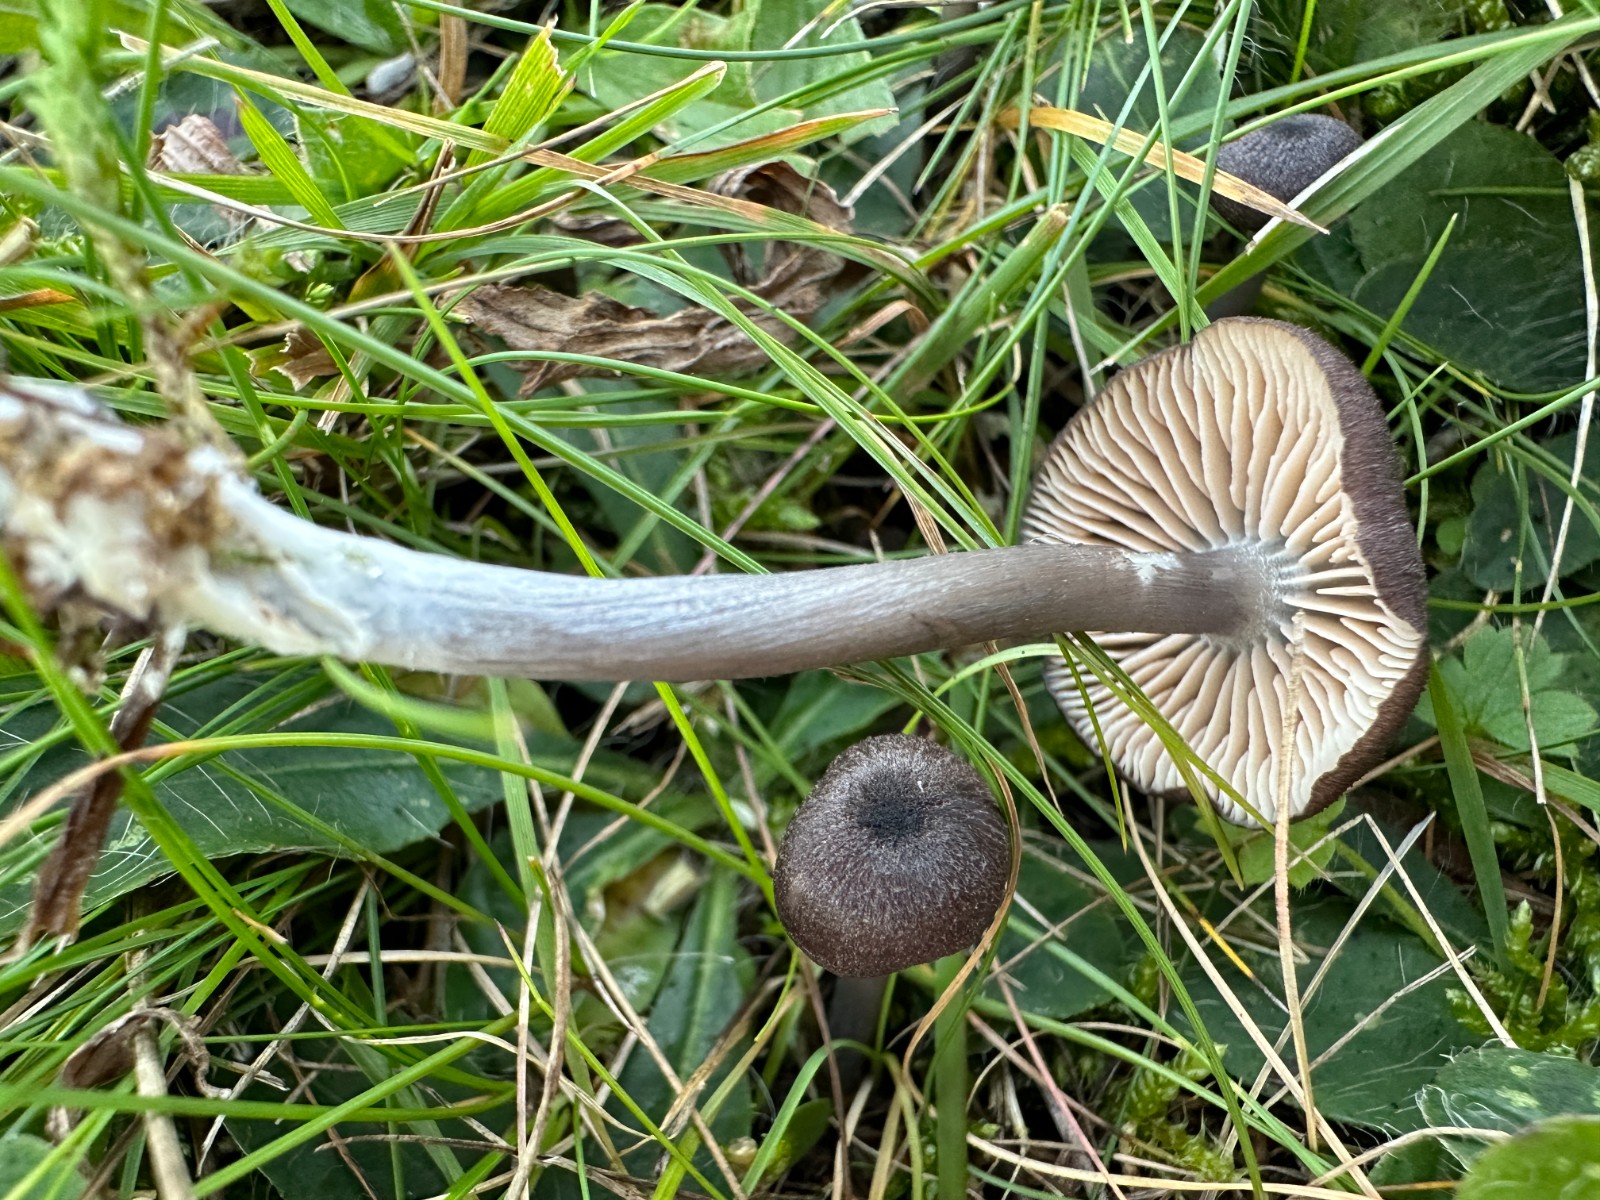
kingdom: Fungi
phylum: Basidiomycota
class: Agaricomycetes
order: Agaricales
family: Entolomataceae
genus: Entoloma
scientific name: Entoloma viiduense
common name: purpurbrun rødblad
